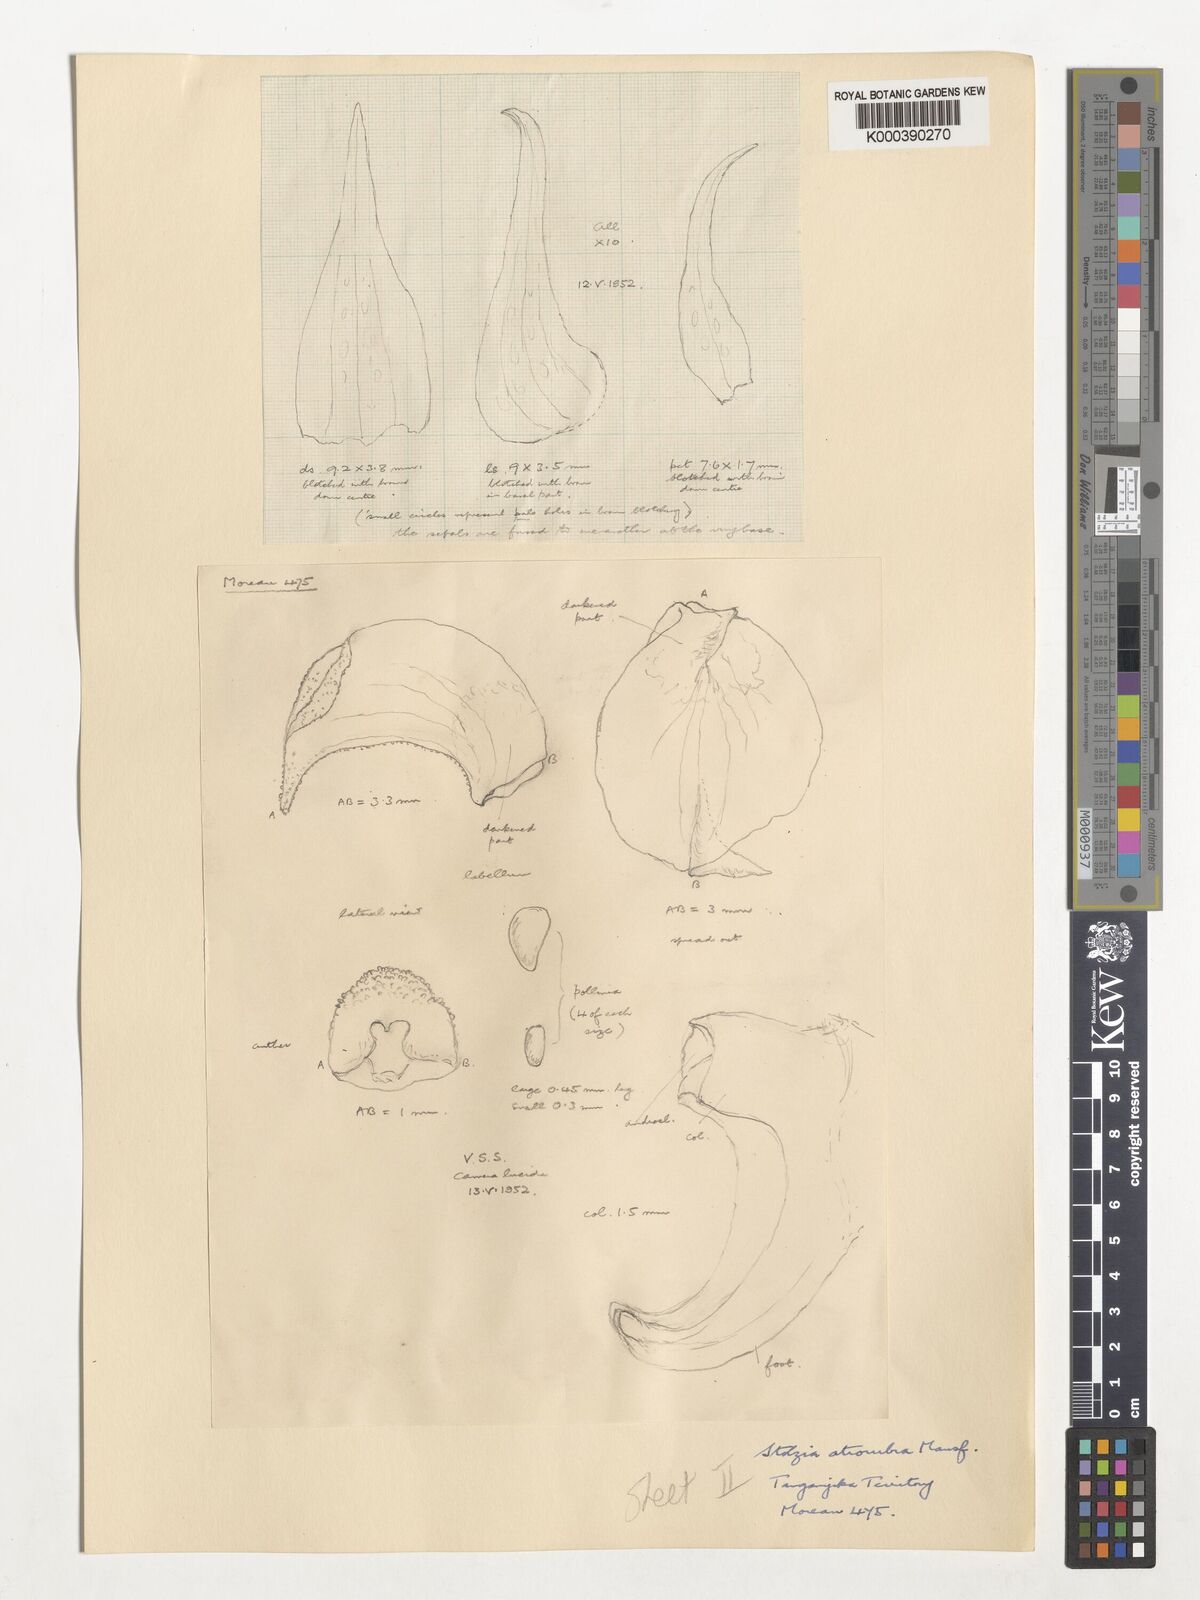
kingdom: Plantae
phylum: Tracheophyta
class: Liliopsida
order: Asparagales
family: Orchidaceae
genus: Porpax
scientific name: Porpax atrorubra
